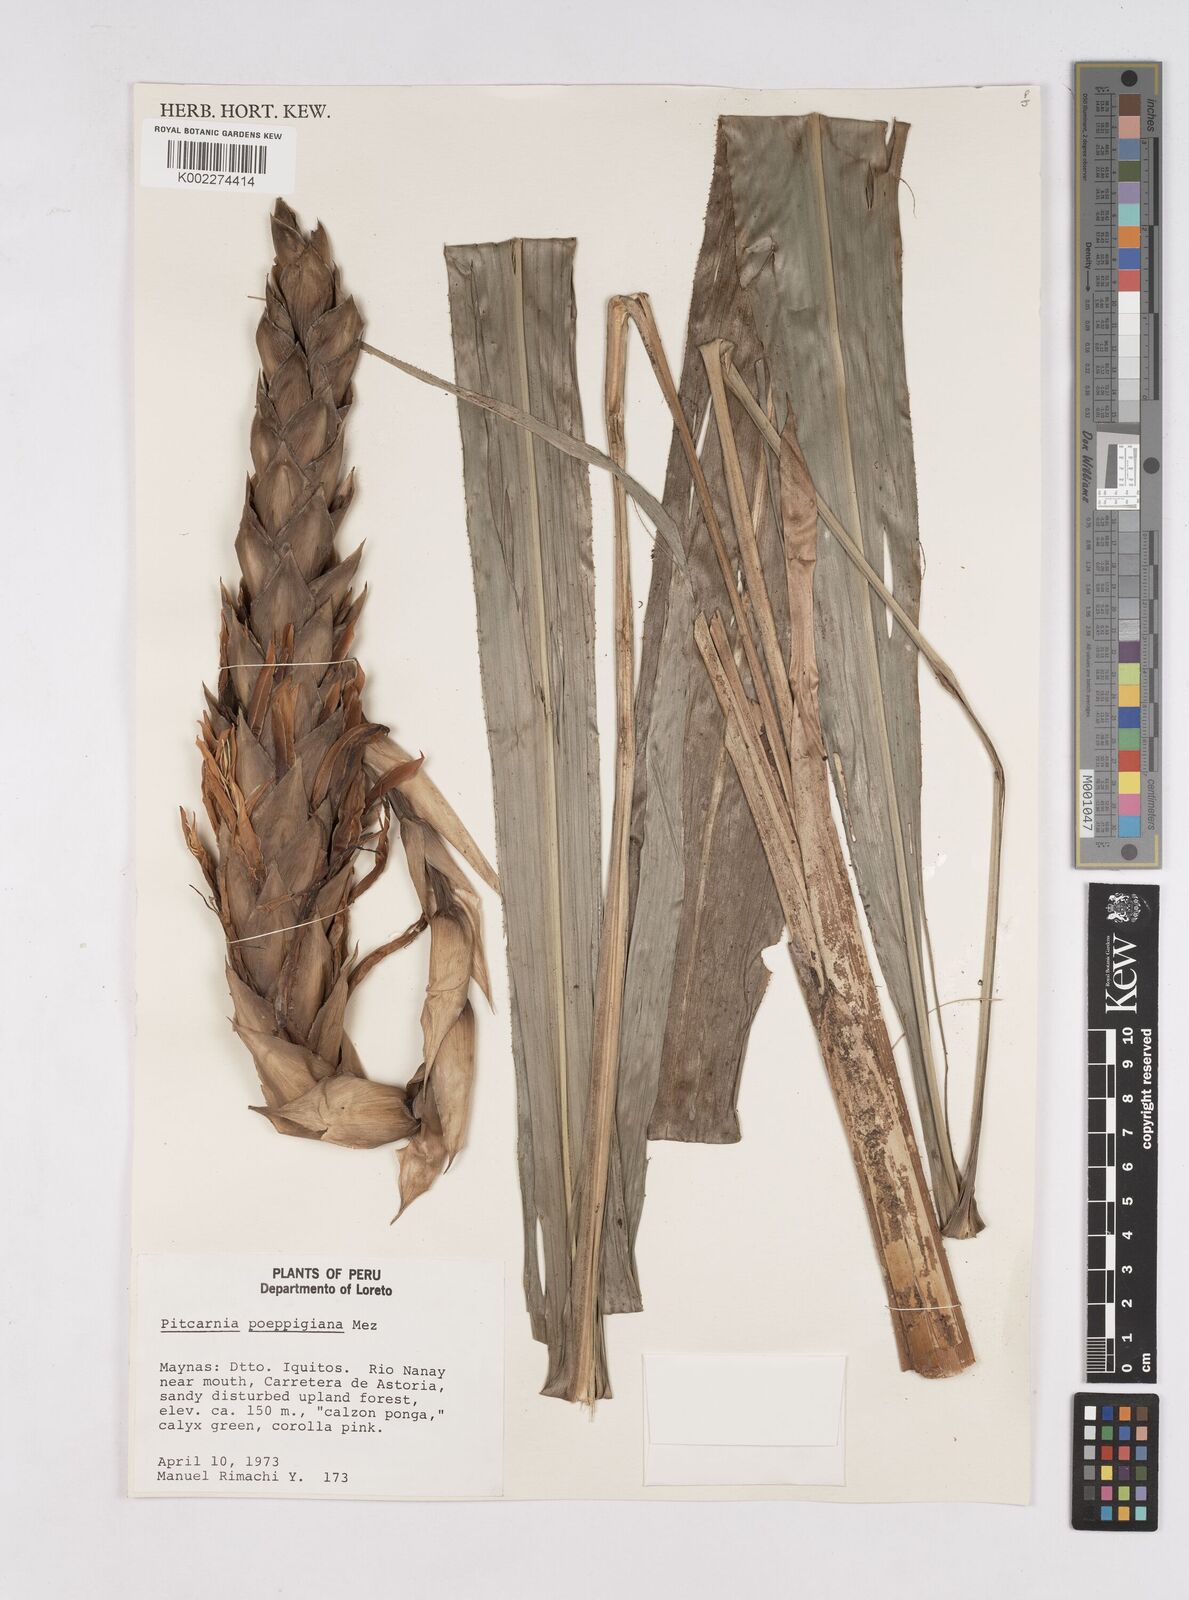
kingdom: Plantae
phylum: Tracheophyta
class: Liliopsida
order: Poales
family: Bromeliaceae
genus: Pitcairnia
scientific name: Pitcairnia poeppigiana
